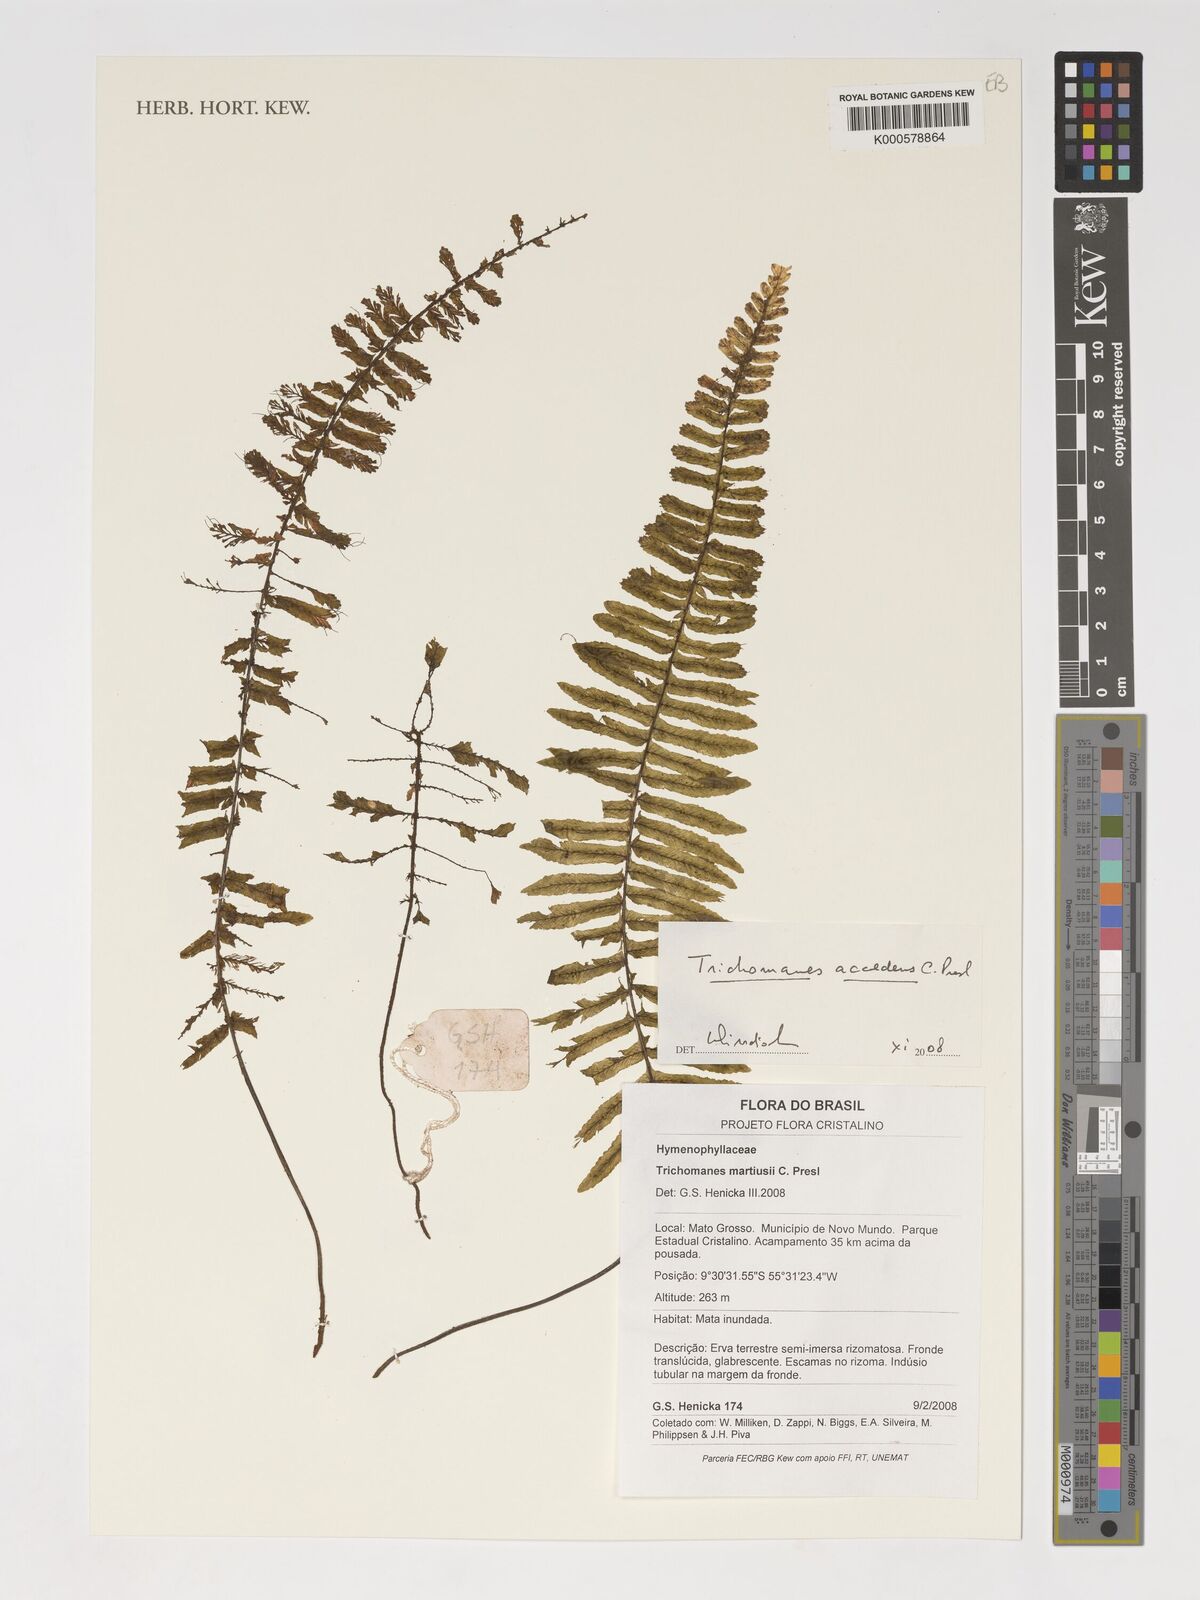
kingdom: Plantae
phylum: Tracheophyta
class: Polypodiopsida
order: Hymenophyllales
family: Hymenophyllaceae
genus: Trichomanes
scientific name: Trichomanes martiusii
